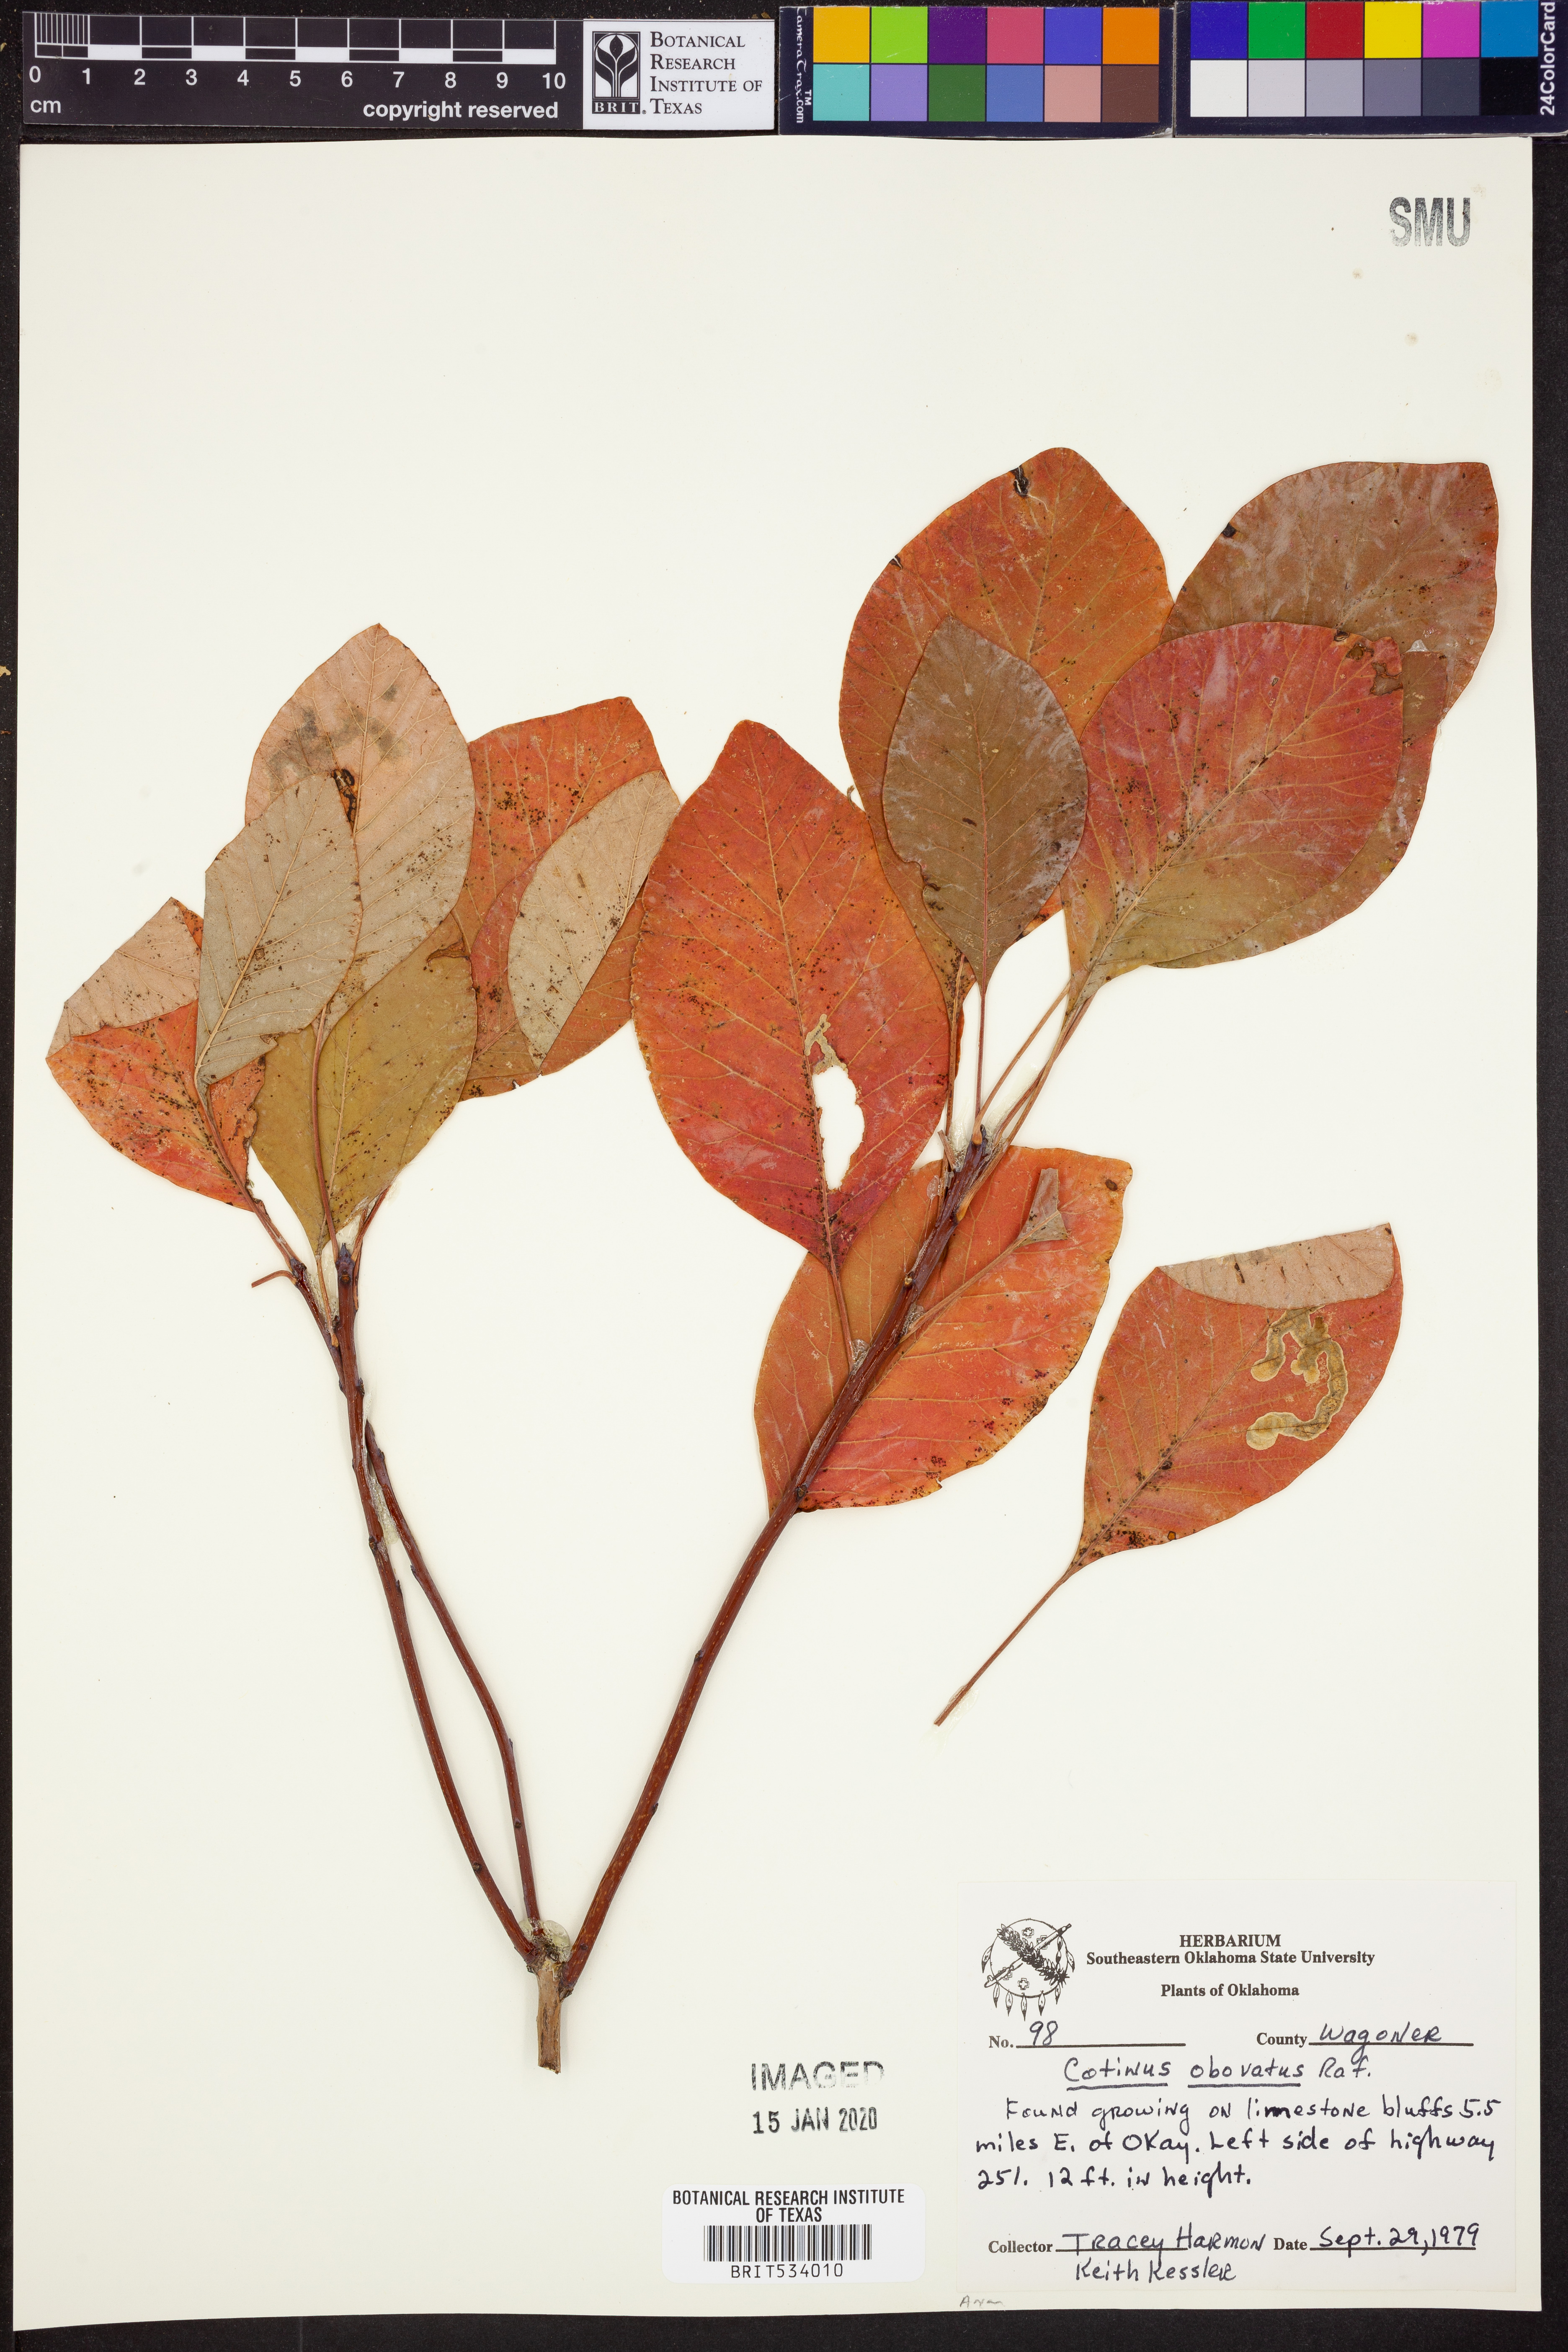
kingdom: Plantae
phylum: Tracheophyta
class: Magnoliopsida
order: Sapindales
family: Anacardiaceae
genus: Cotinus
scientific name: Cotinus obovatus
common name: Chittamwood
